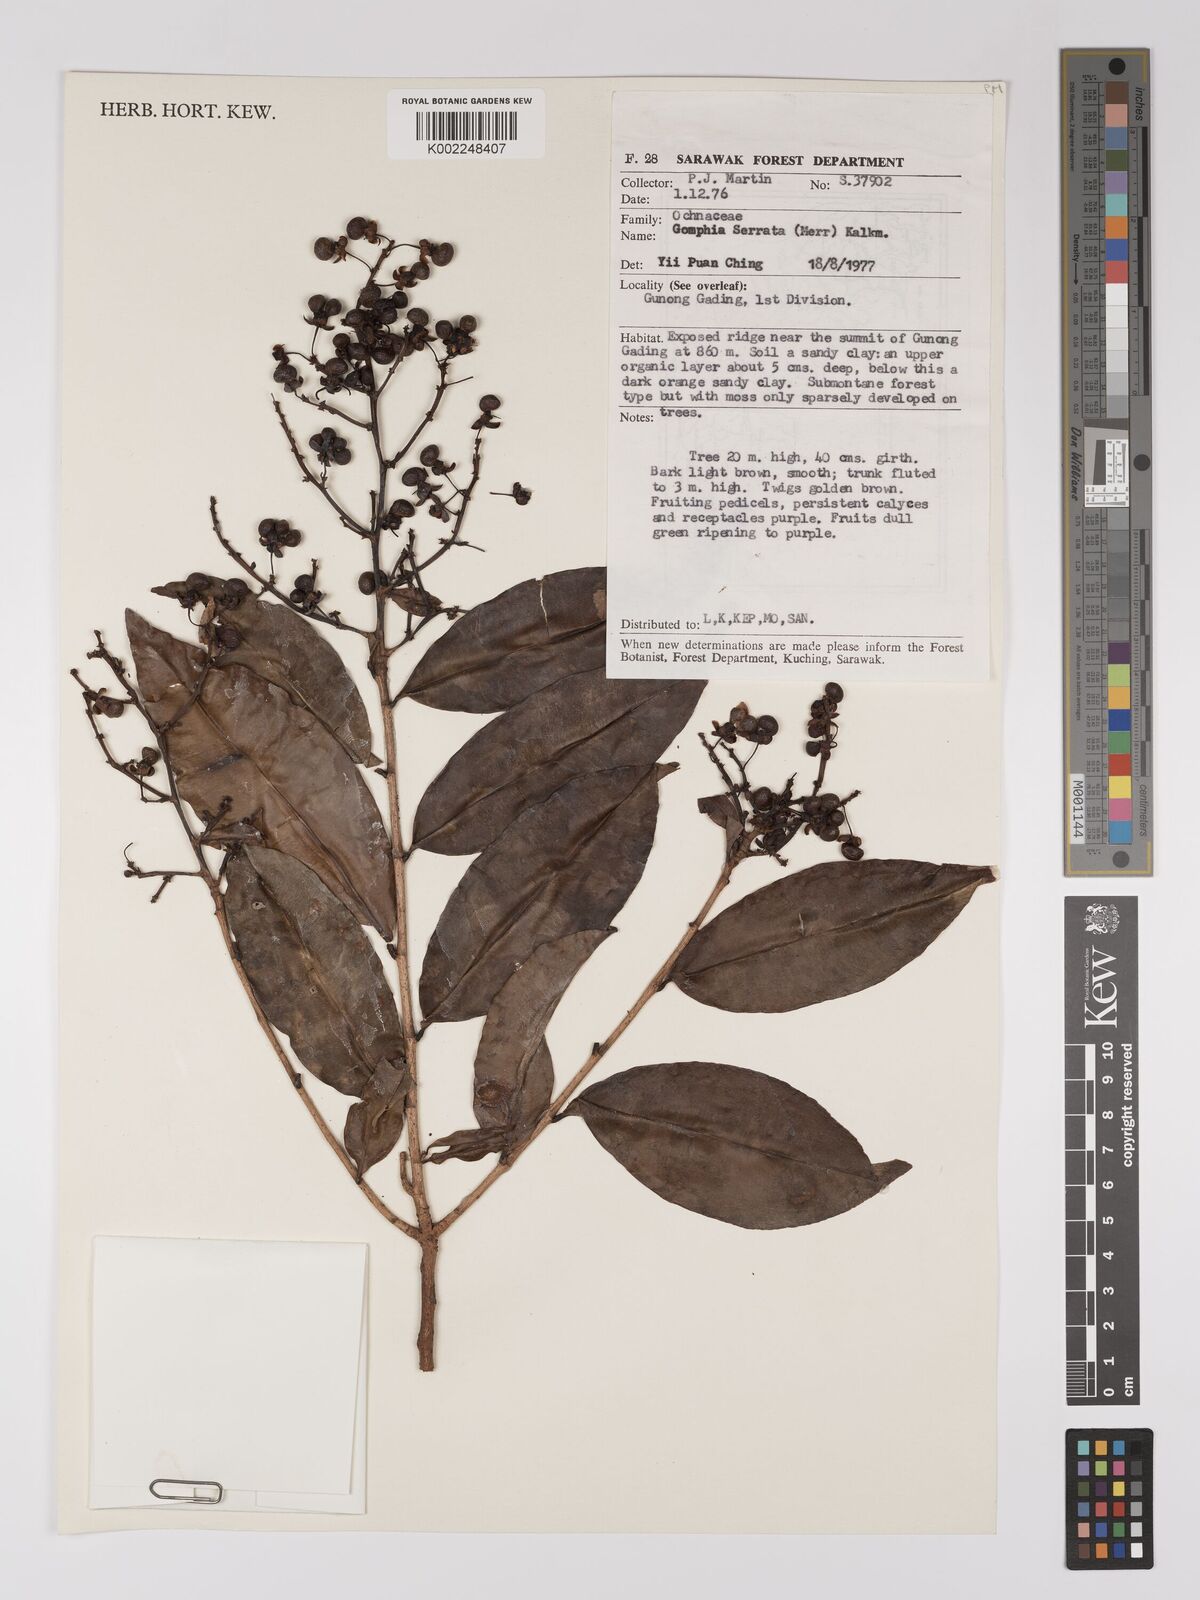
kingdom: Plantae
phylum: Tracheophyta
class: Magnoliopsida
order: Malpighiales
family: Ochnaceae
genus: Gomphia
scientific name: Gomphia serrata
